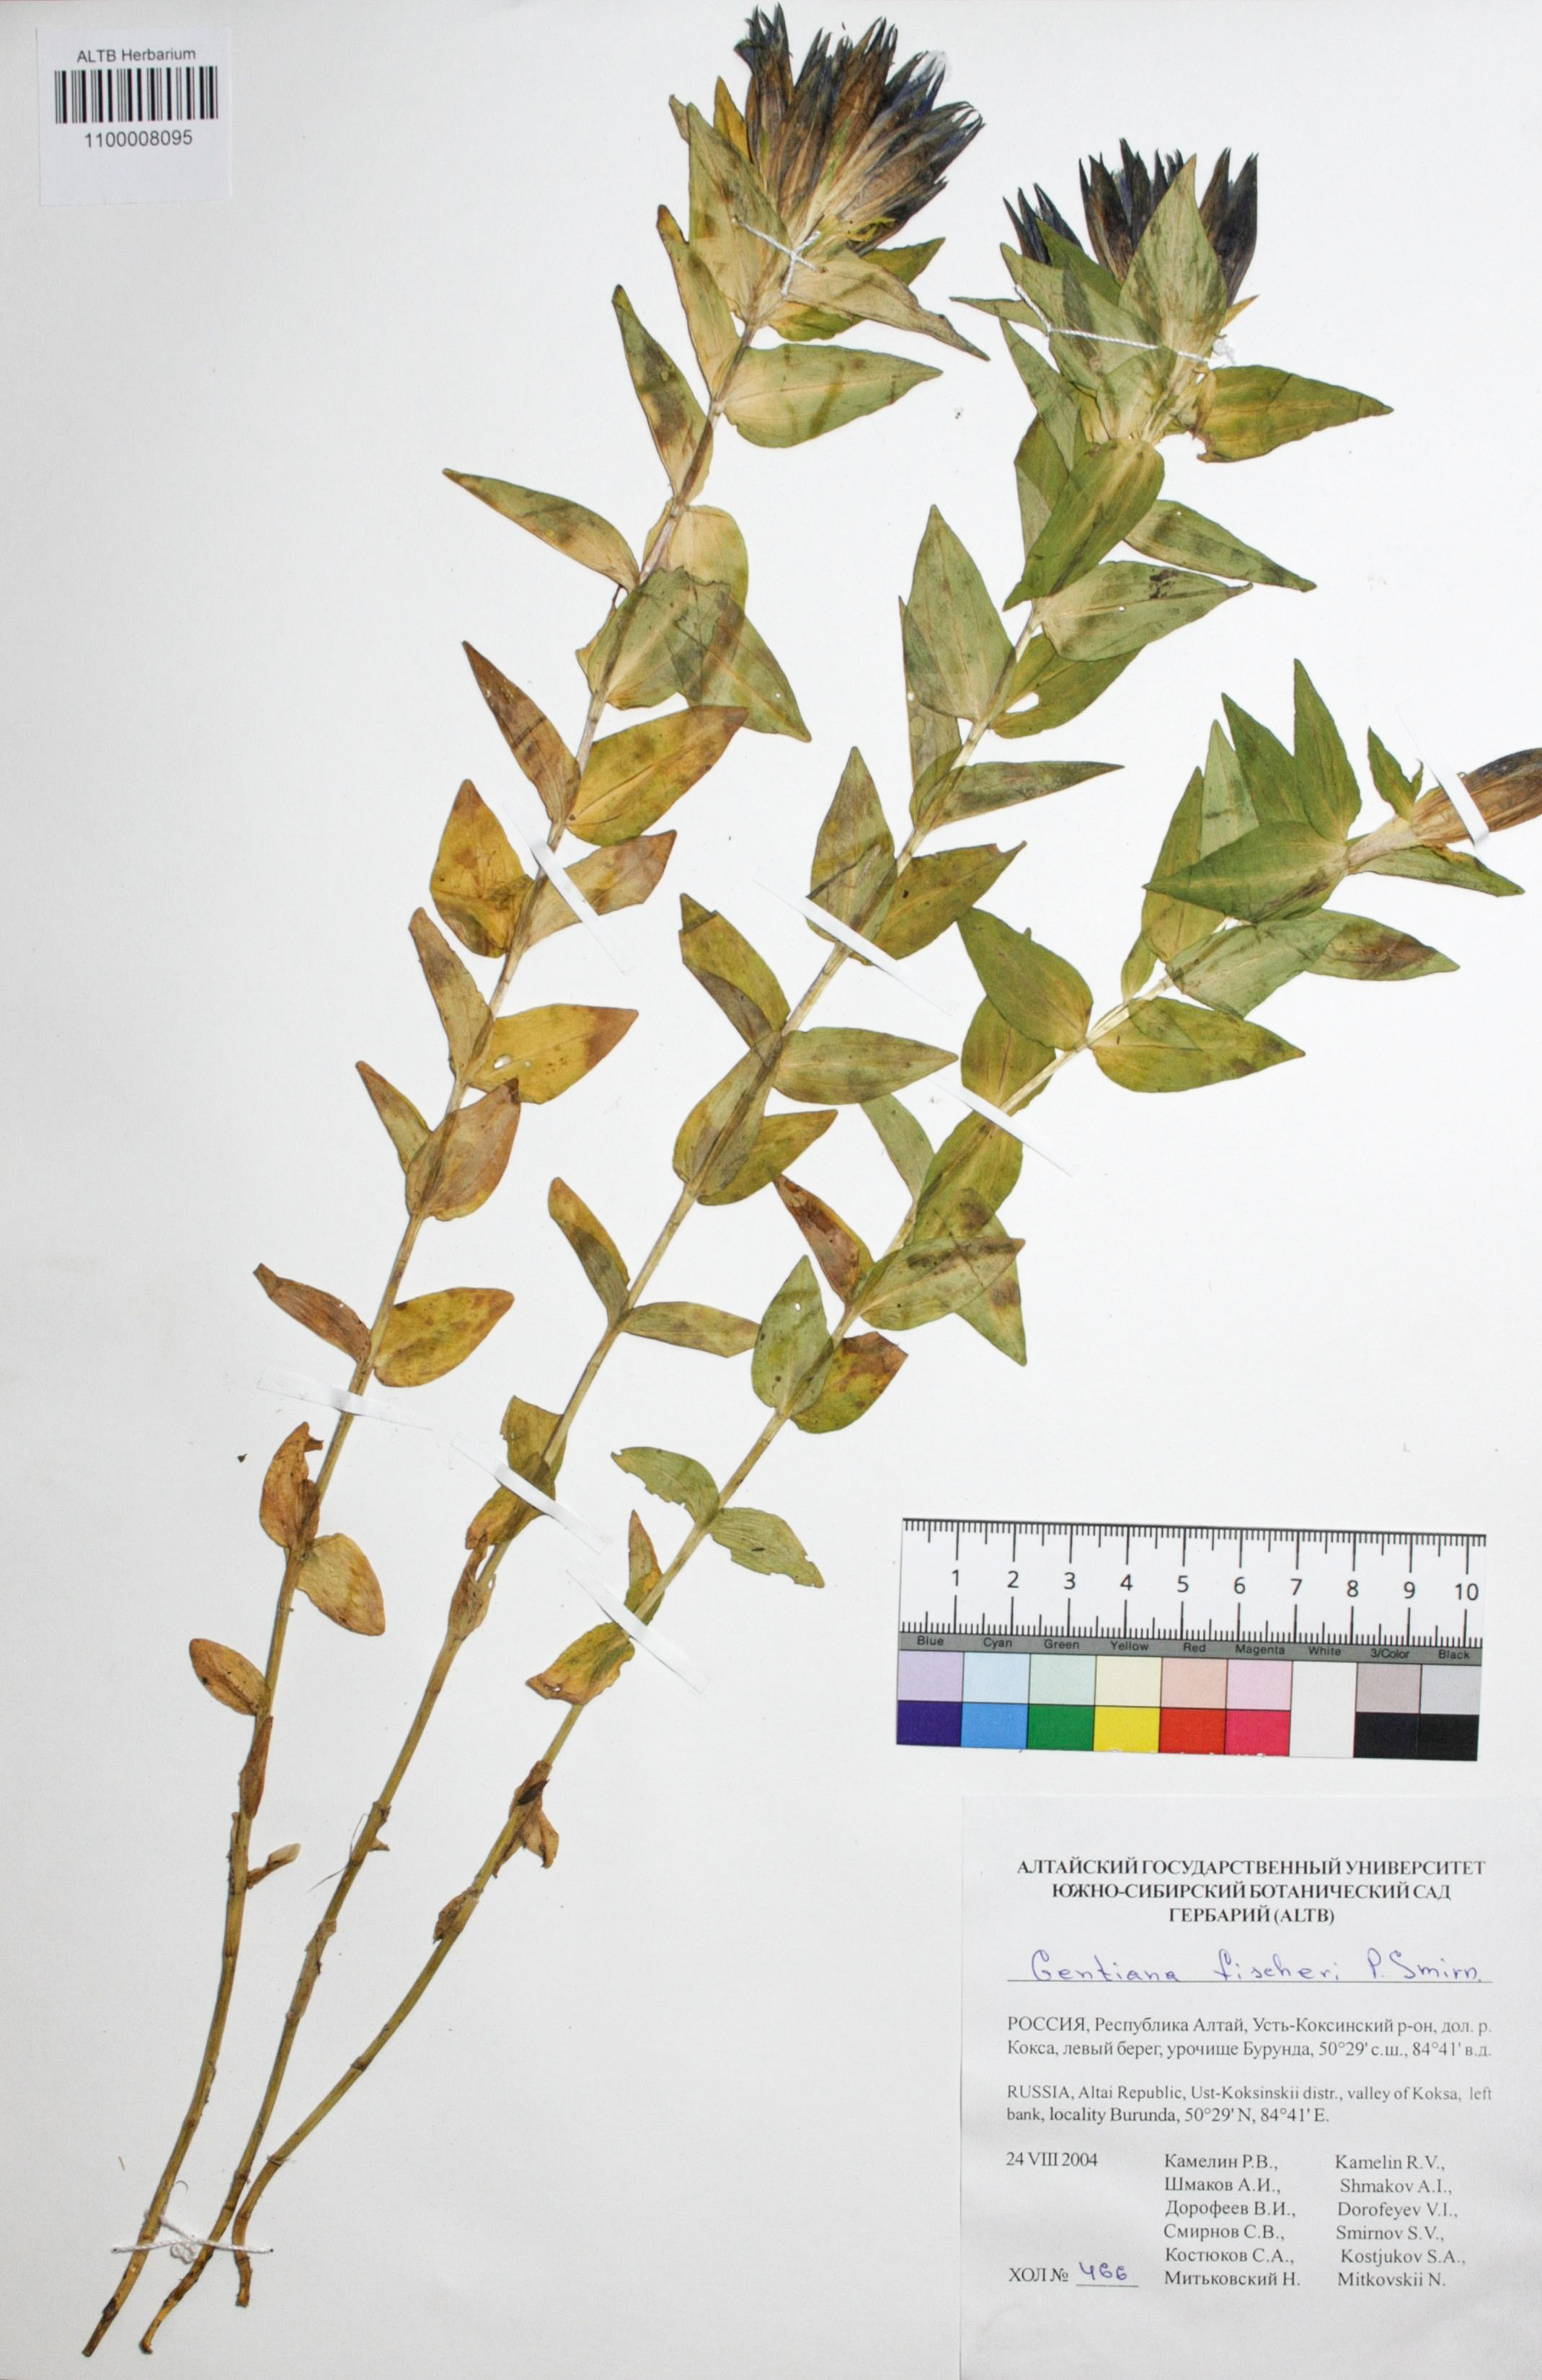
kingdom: Plantae
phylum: Tracheophyta
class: Magnoliopsida
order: Gentianales
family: Gentianaceae
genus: Gentiana
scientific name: Gentiana dschungarica
